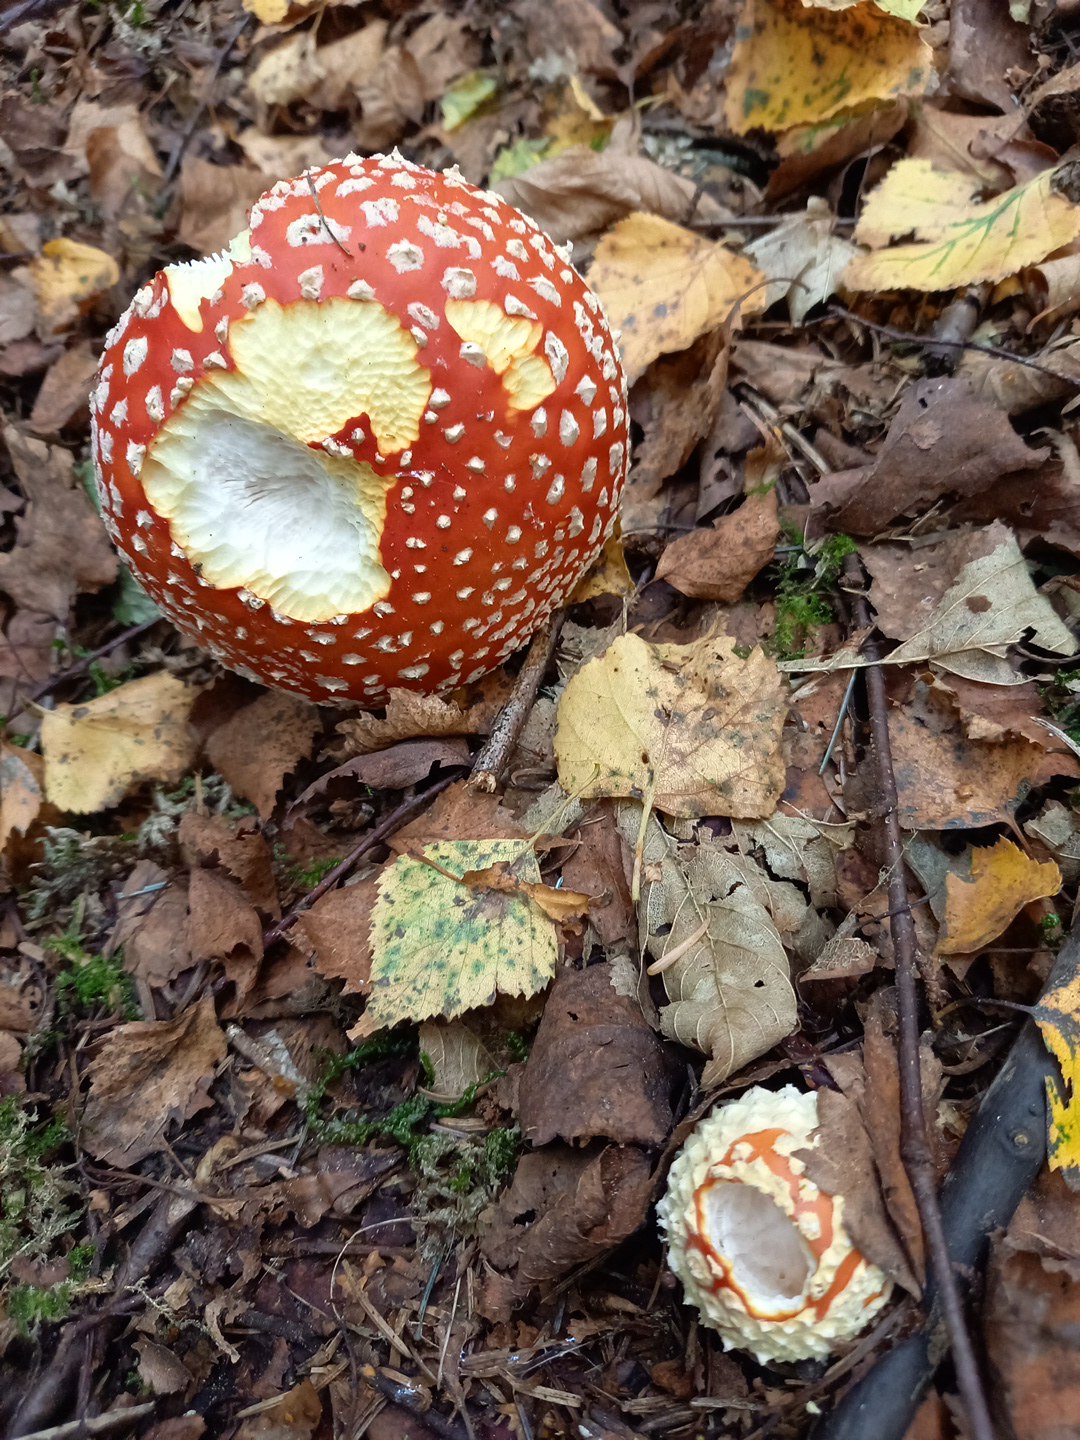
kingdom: Fungi
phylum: Basidiomycota
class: Agaricomycetes
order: Agaricales
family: Amanitaceae
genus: Amanita
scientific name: Amanita muscaria
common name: rød fluesvamp
